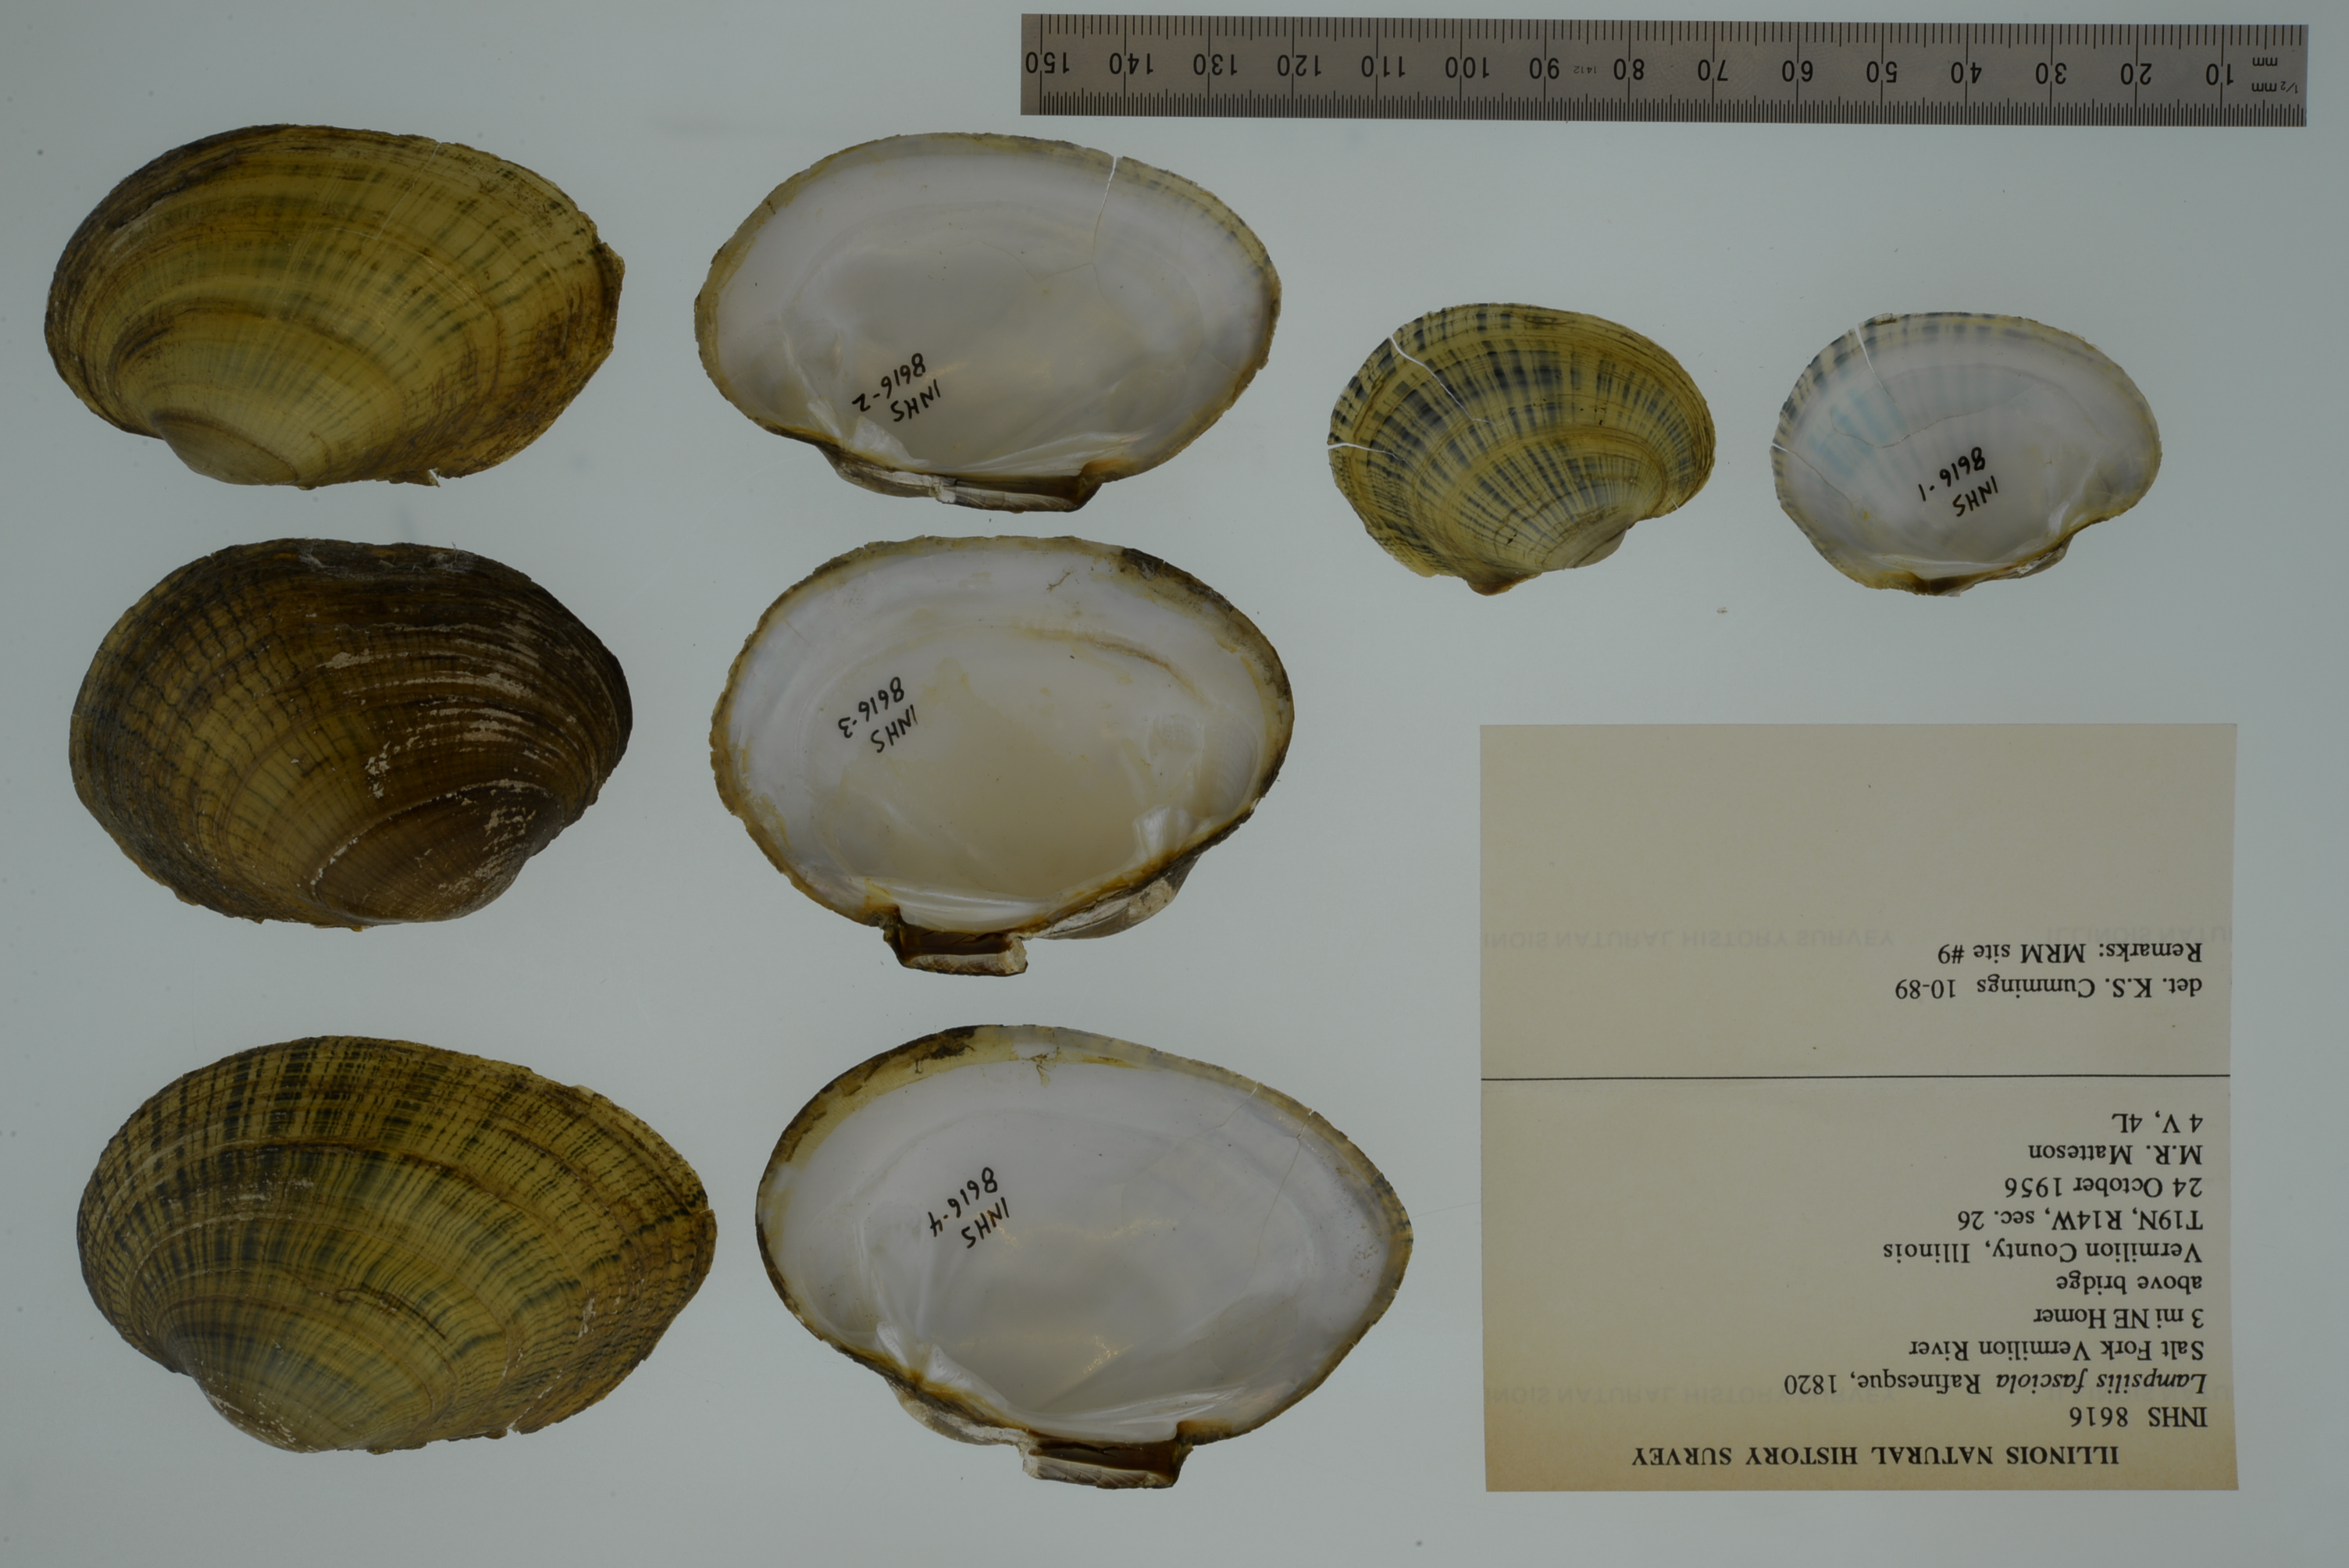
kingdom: Animalia
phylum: Mollusca
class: Bivalvia
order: Unionida
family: Unionidae
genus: Lampsilis
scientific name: Lampsilis fasciola
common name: Wavyrayed lampmussel
